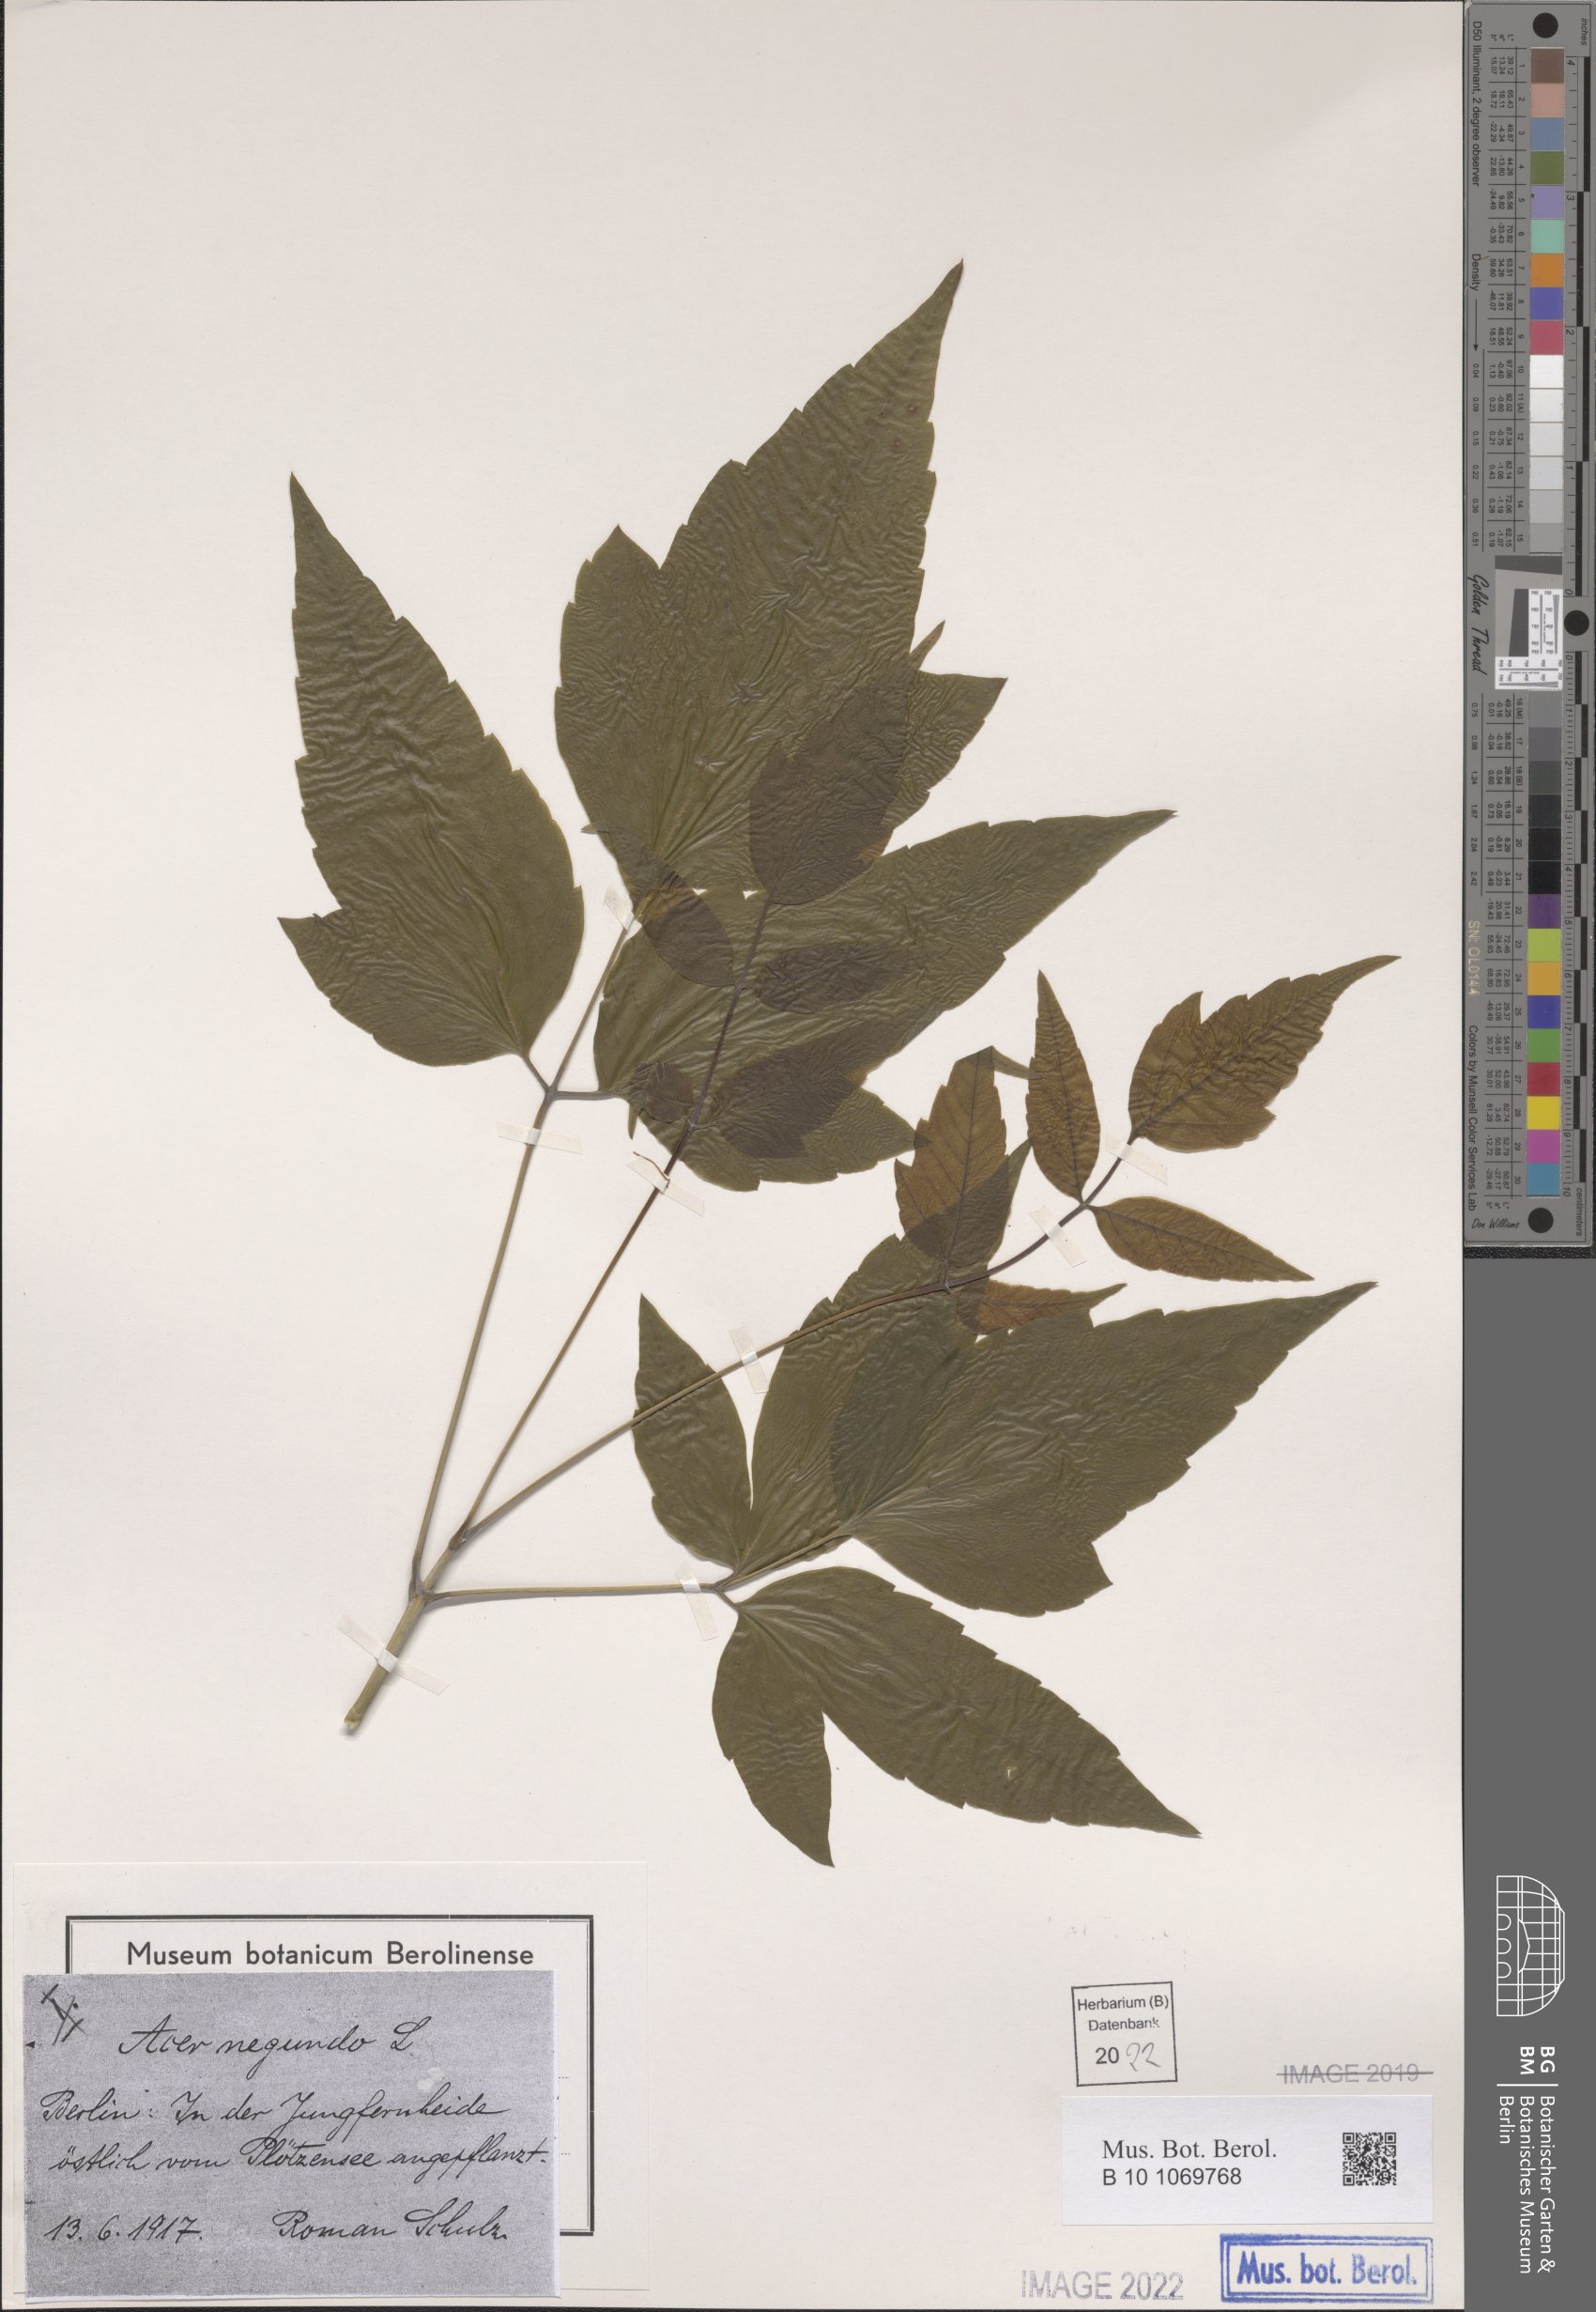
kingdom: Plantae
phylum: Tracheophyta
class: Magnoliopsida
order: Sapindales
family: Sapindaceae
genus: Acer
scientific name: Acer negundo
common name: Ashleaf maple
